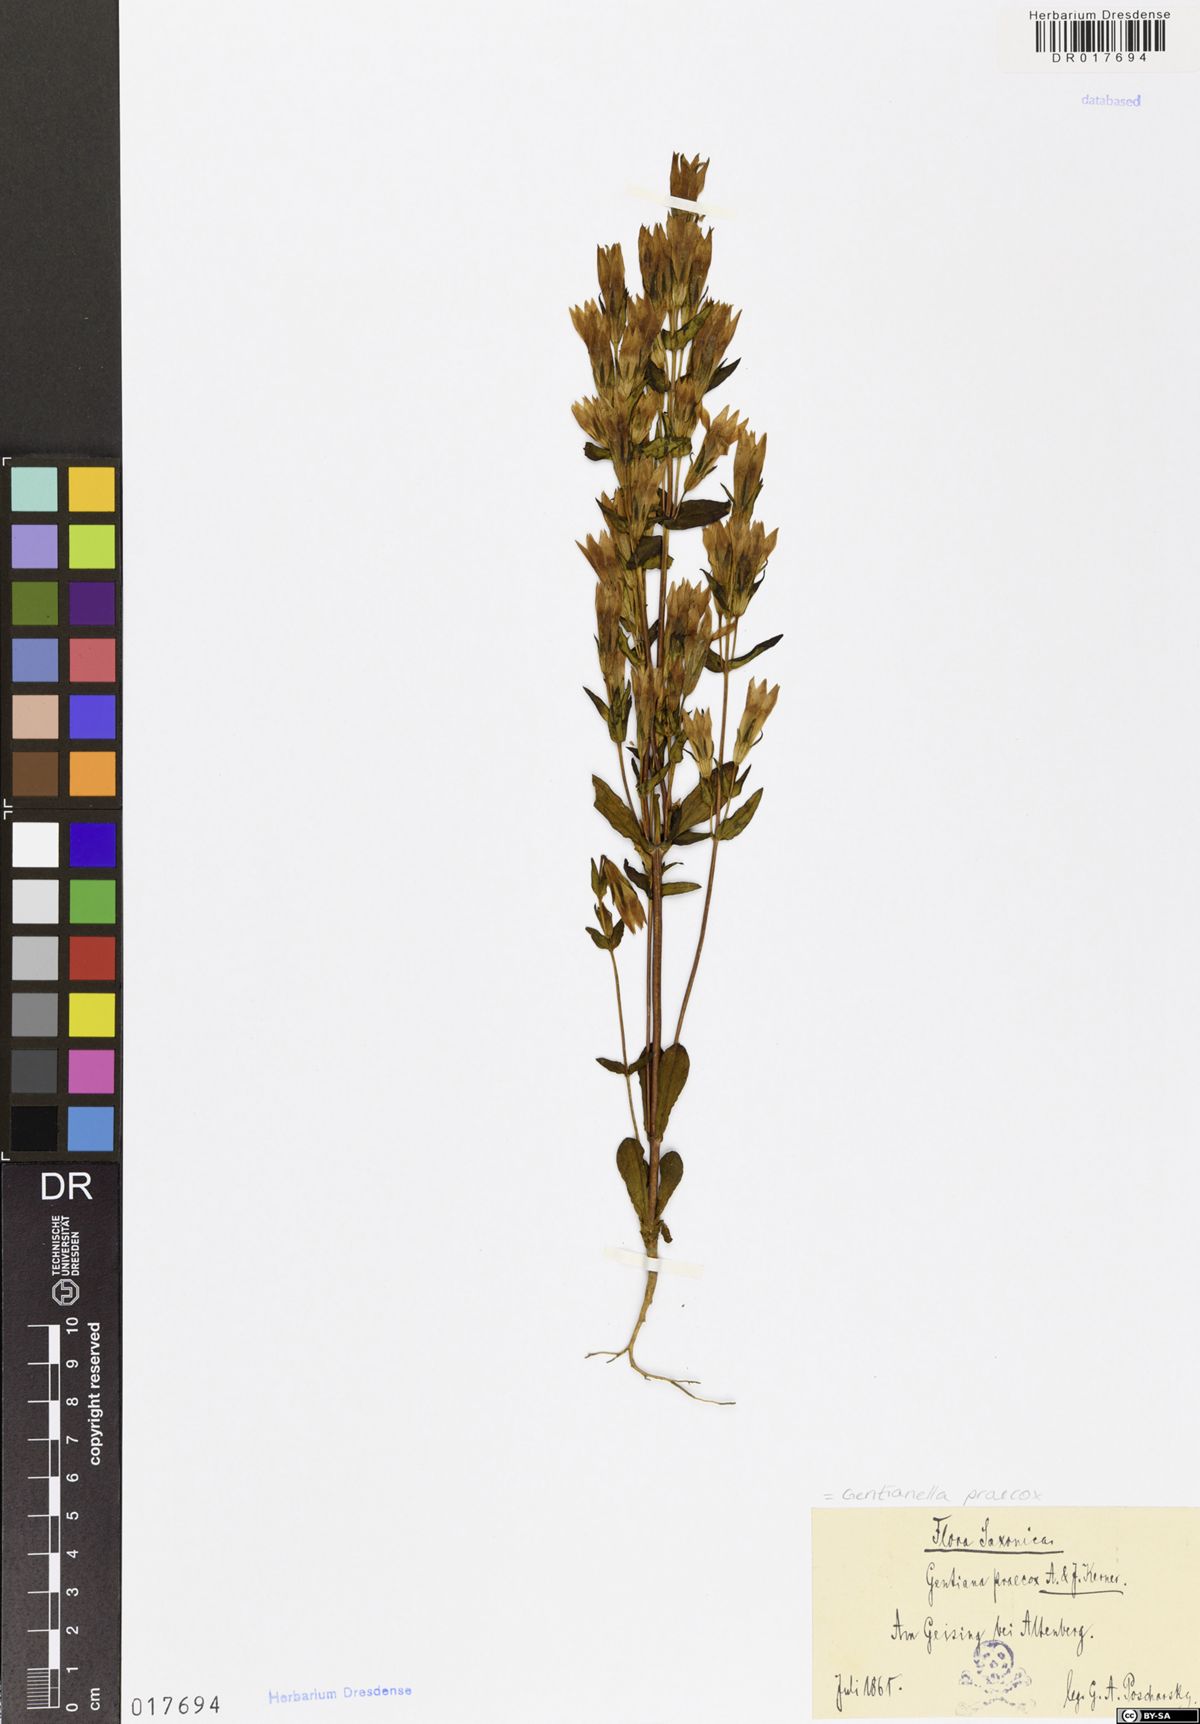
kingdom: Plantae
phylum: Tracheophyta
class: Magnoliopsida
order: Gentianales
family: Gentianaceae
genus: Gentianella
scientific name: Gentianella praecox
